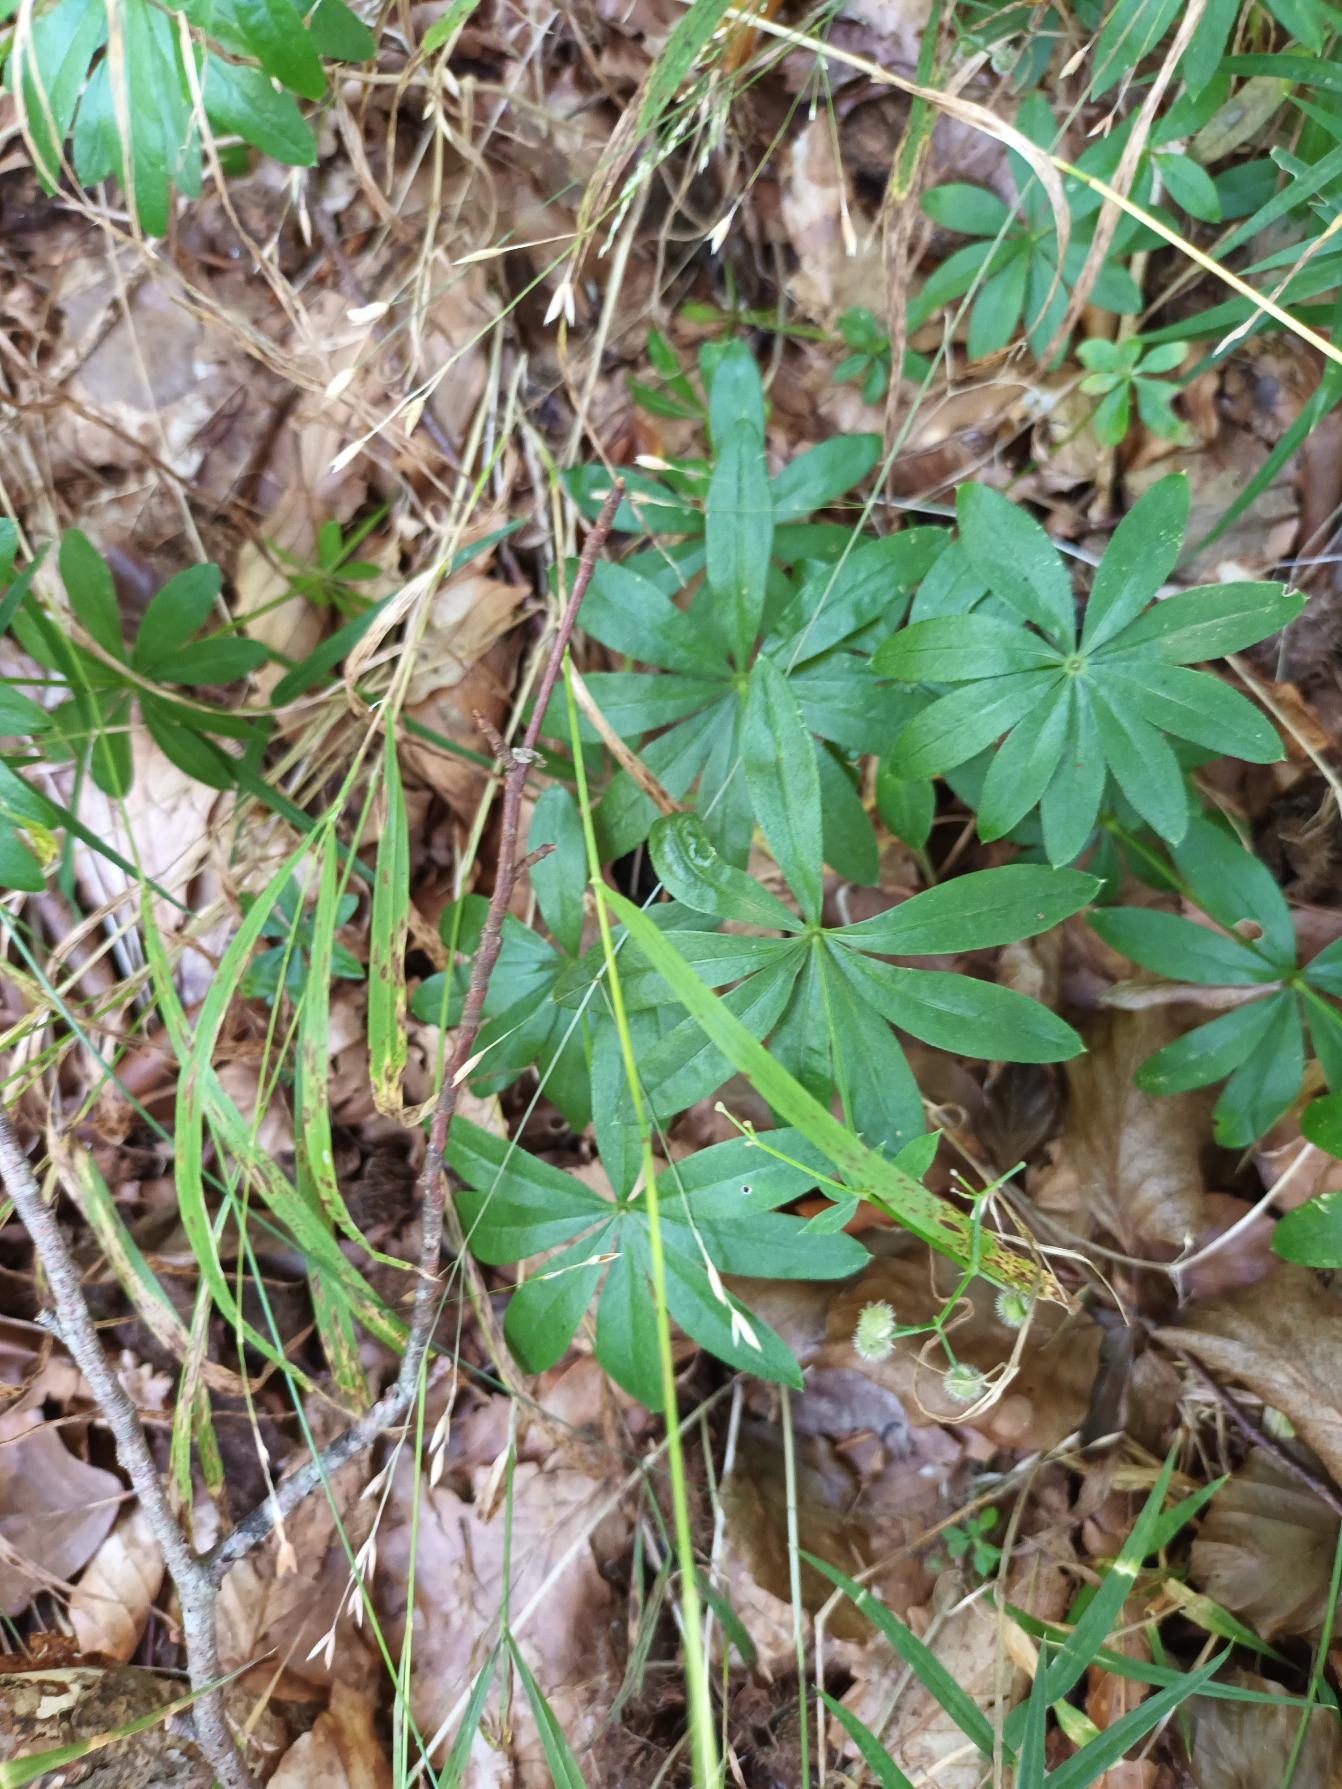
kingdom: Plantae
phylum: Tracheophyta
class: Magnoliopsida
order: Gentianales
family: Rubiaceae
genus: Galium
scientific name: Galium odoratum
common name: Skovmærke
